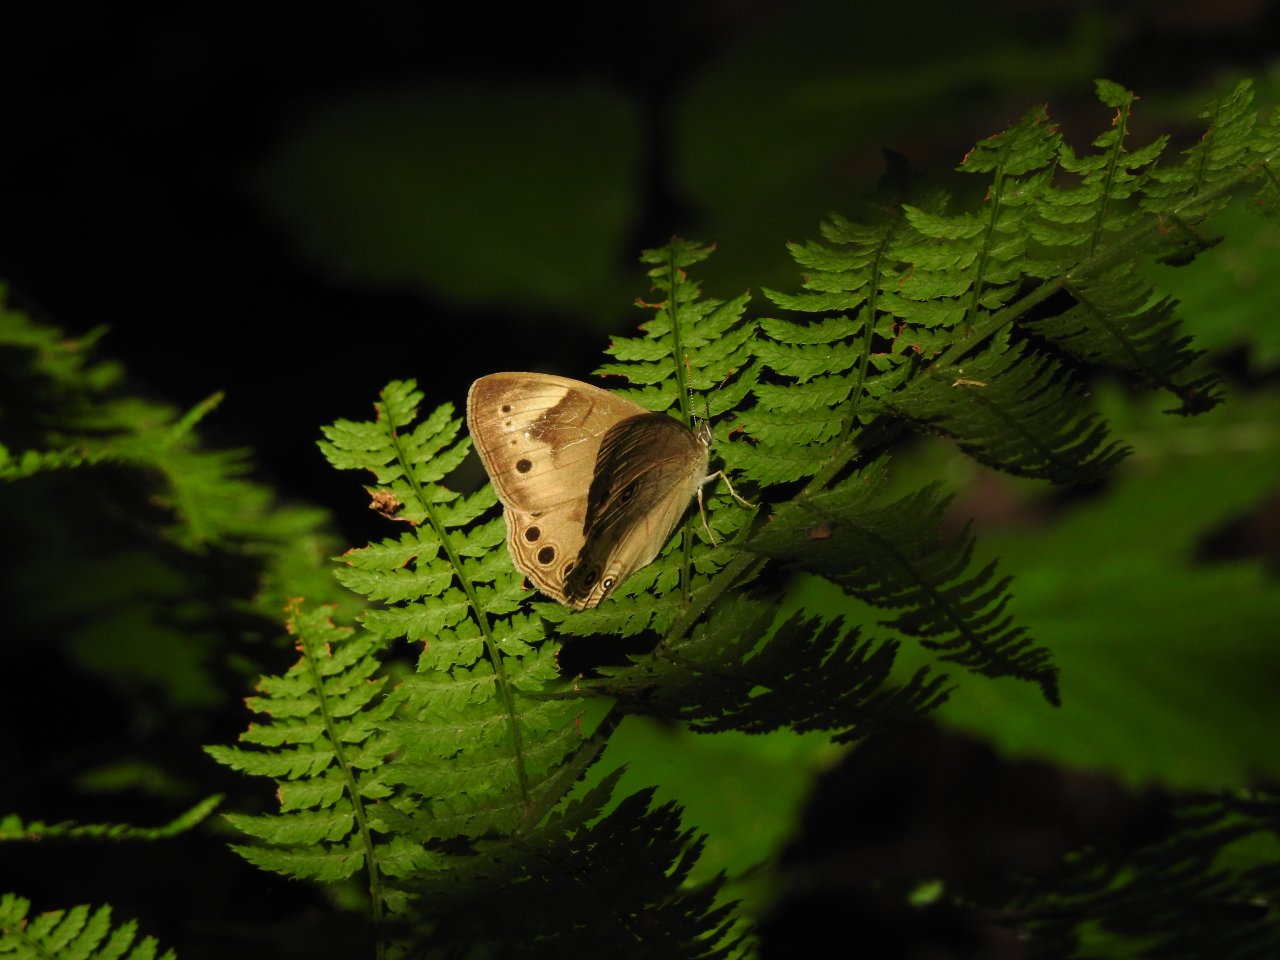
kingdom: Animalia
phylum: Arthropoda
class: Insecta
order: Lepidoptera
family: Nymphalidae
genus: Lethe
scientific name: Lethe
